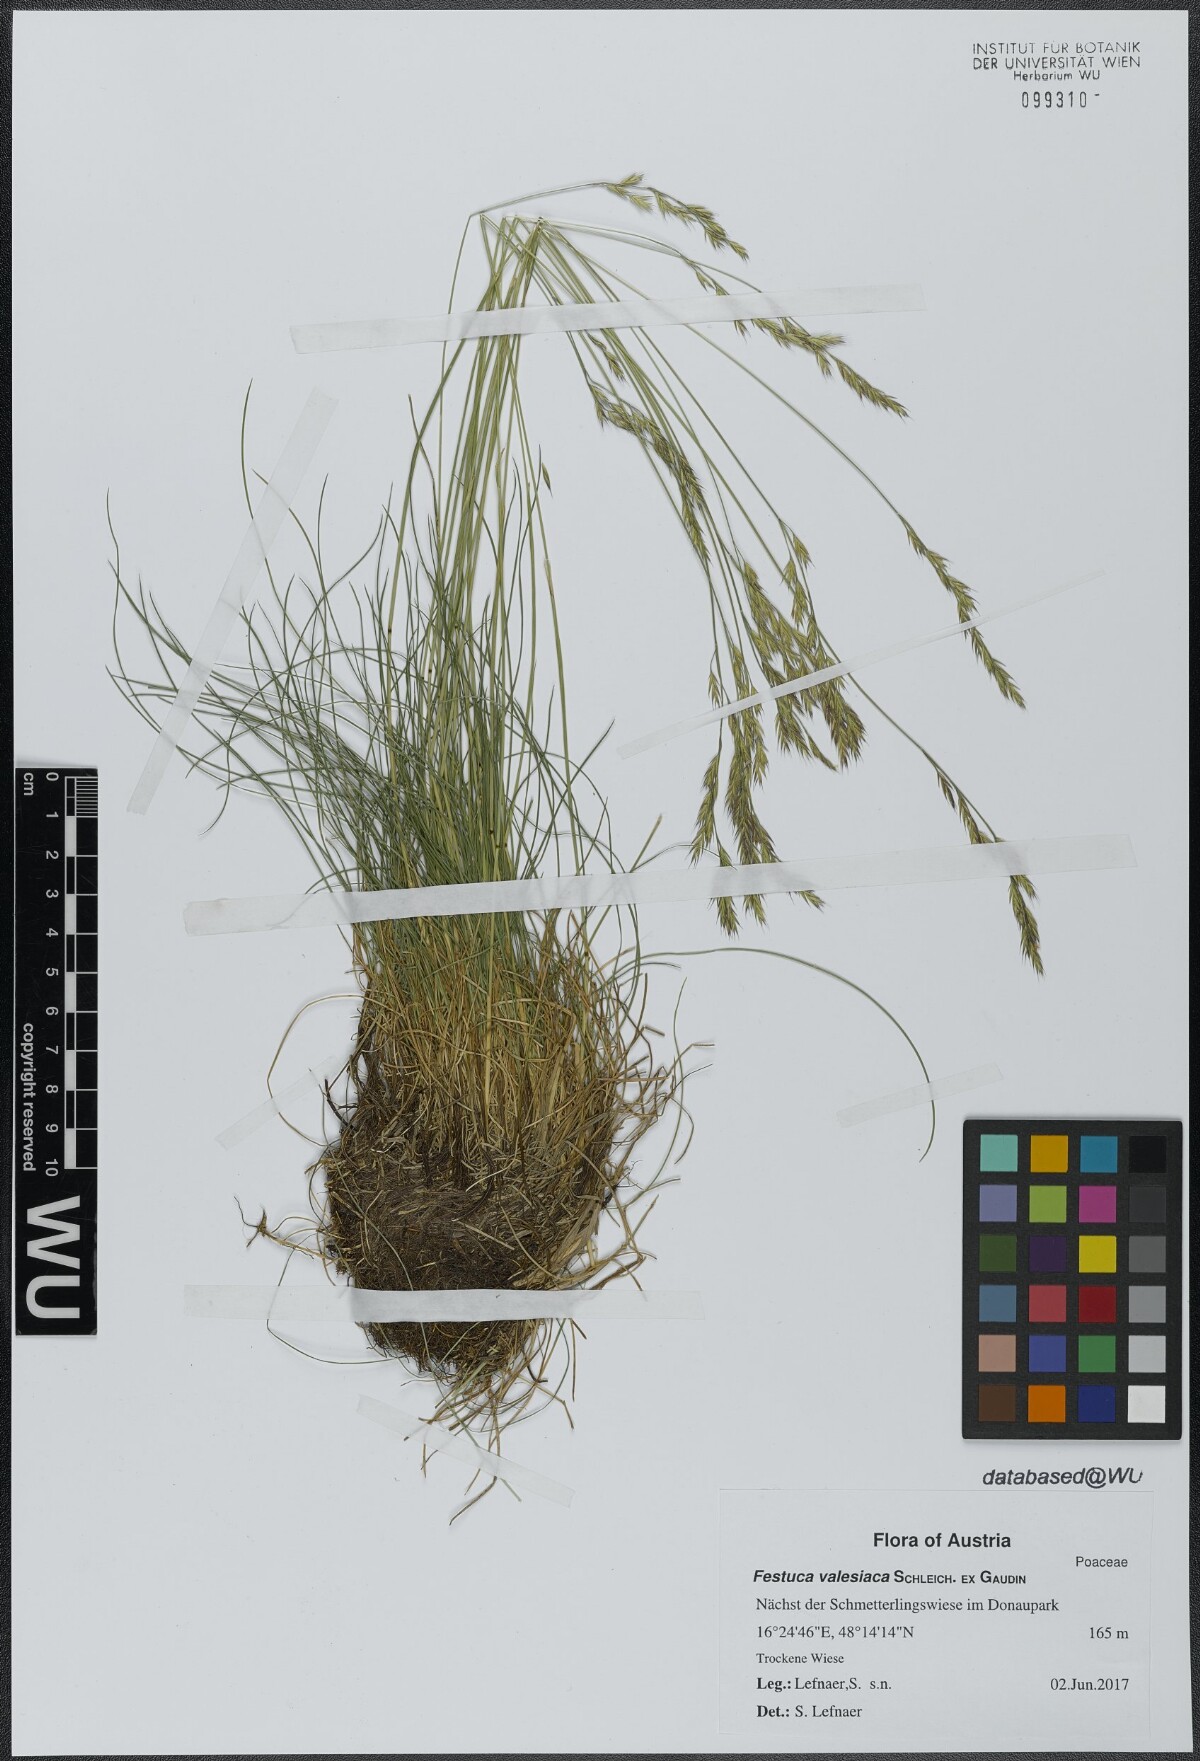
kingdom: Plantae
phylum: Tracheophyta
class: Liliopsida
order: Poales
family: Poaceae
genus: Festuca
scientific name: Festuca valesiaca
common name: Volga fescue
